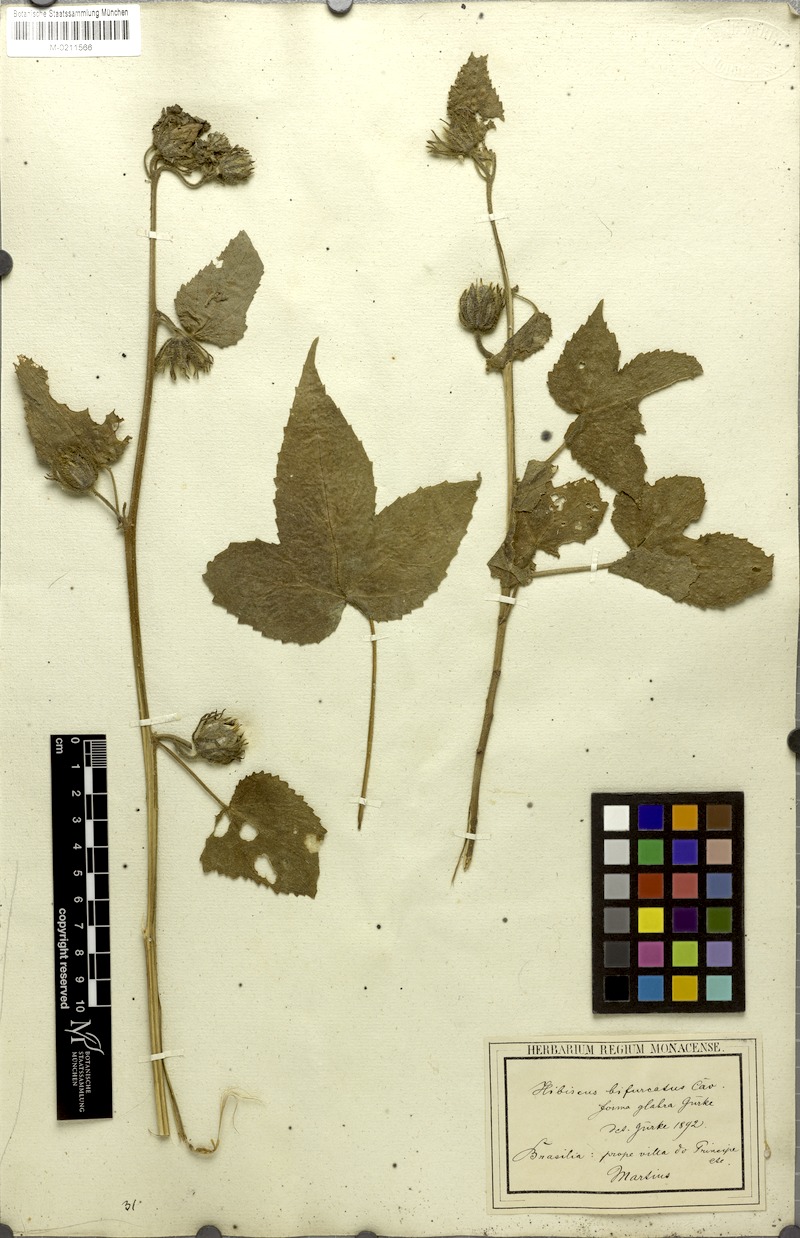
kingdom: Plantae
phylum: Tracheophyta
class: Magnoliopsida
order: Malvales
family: Malvaceae
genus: Hibiscus
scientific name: Hibiscus bifurcatus
